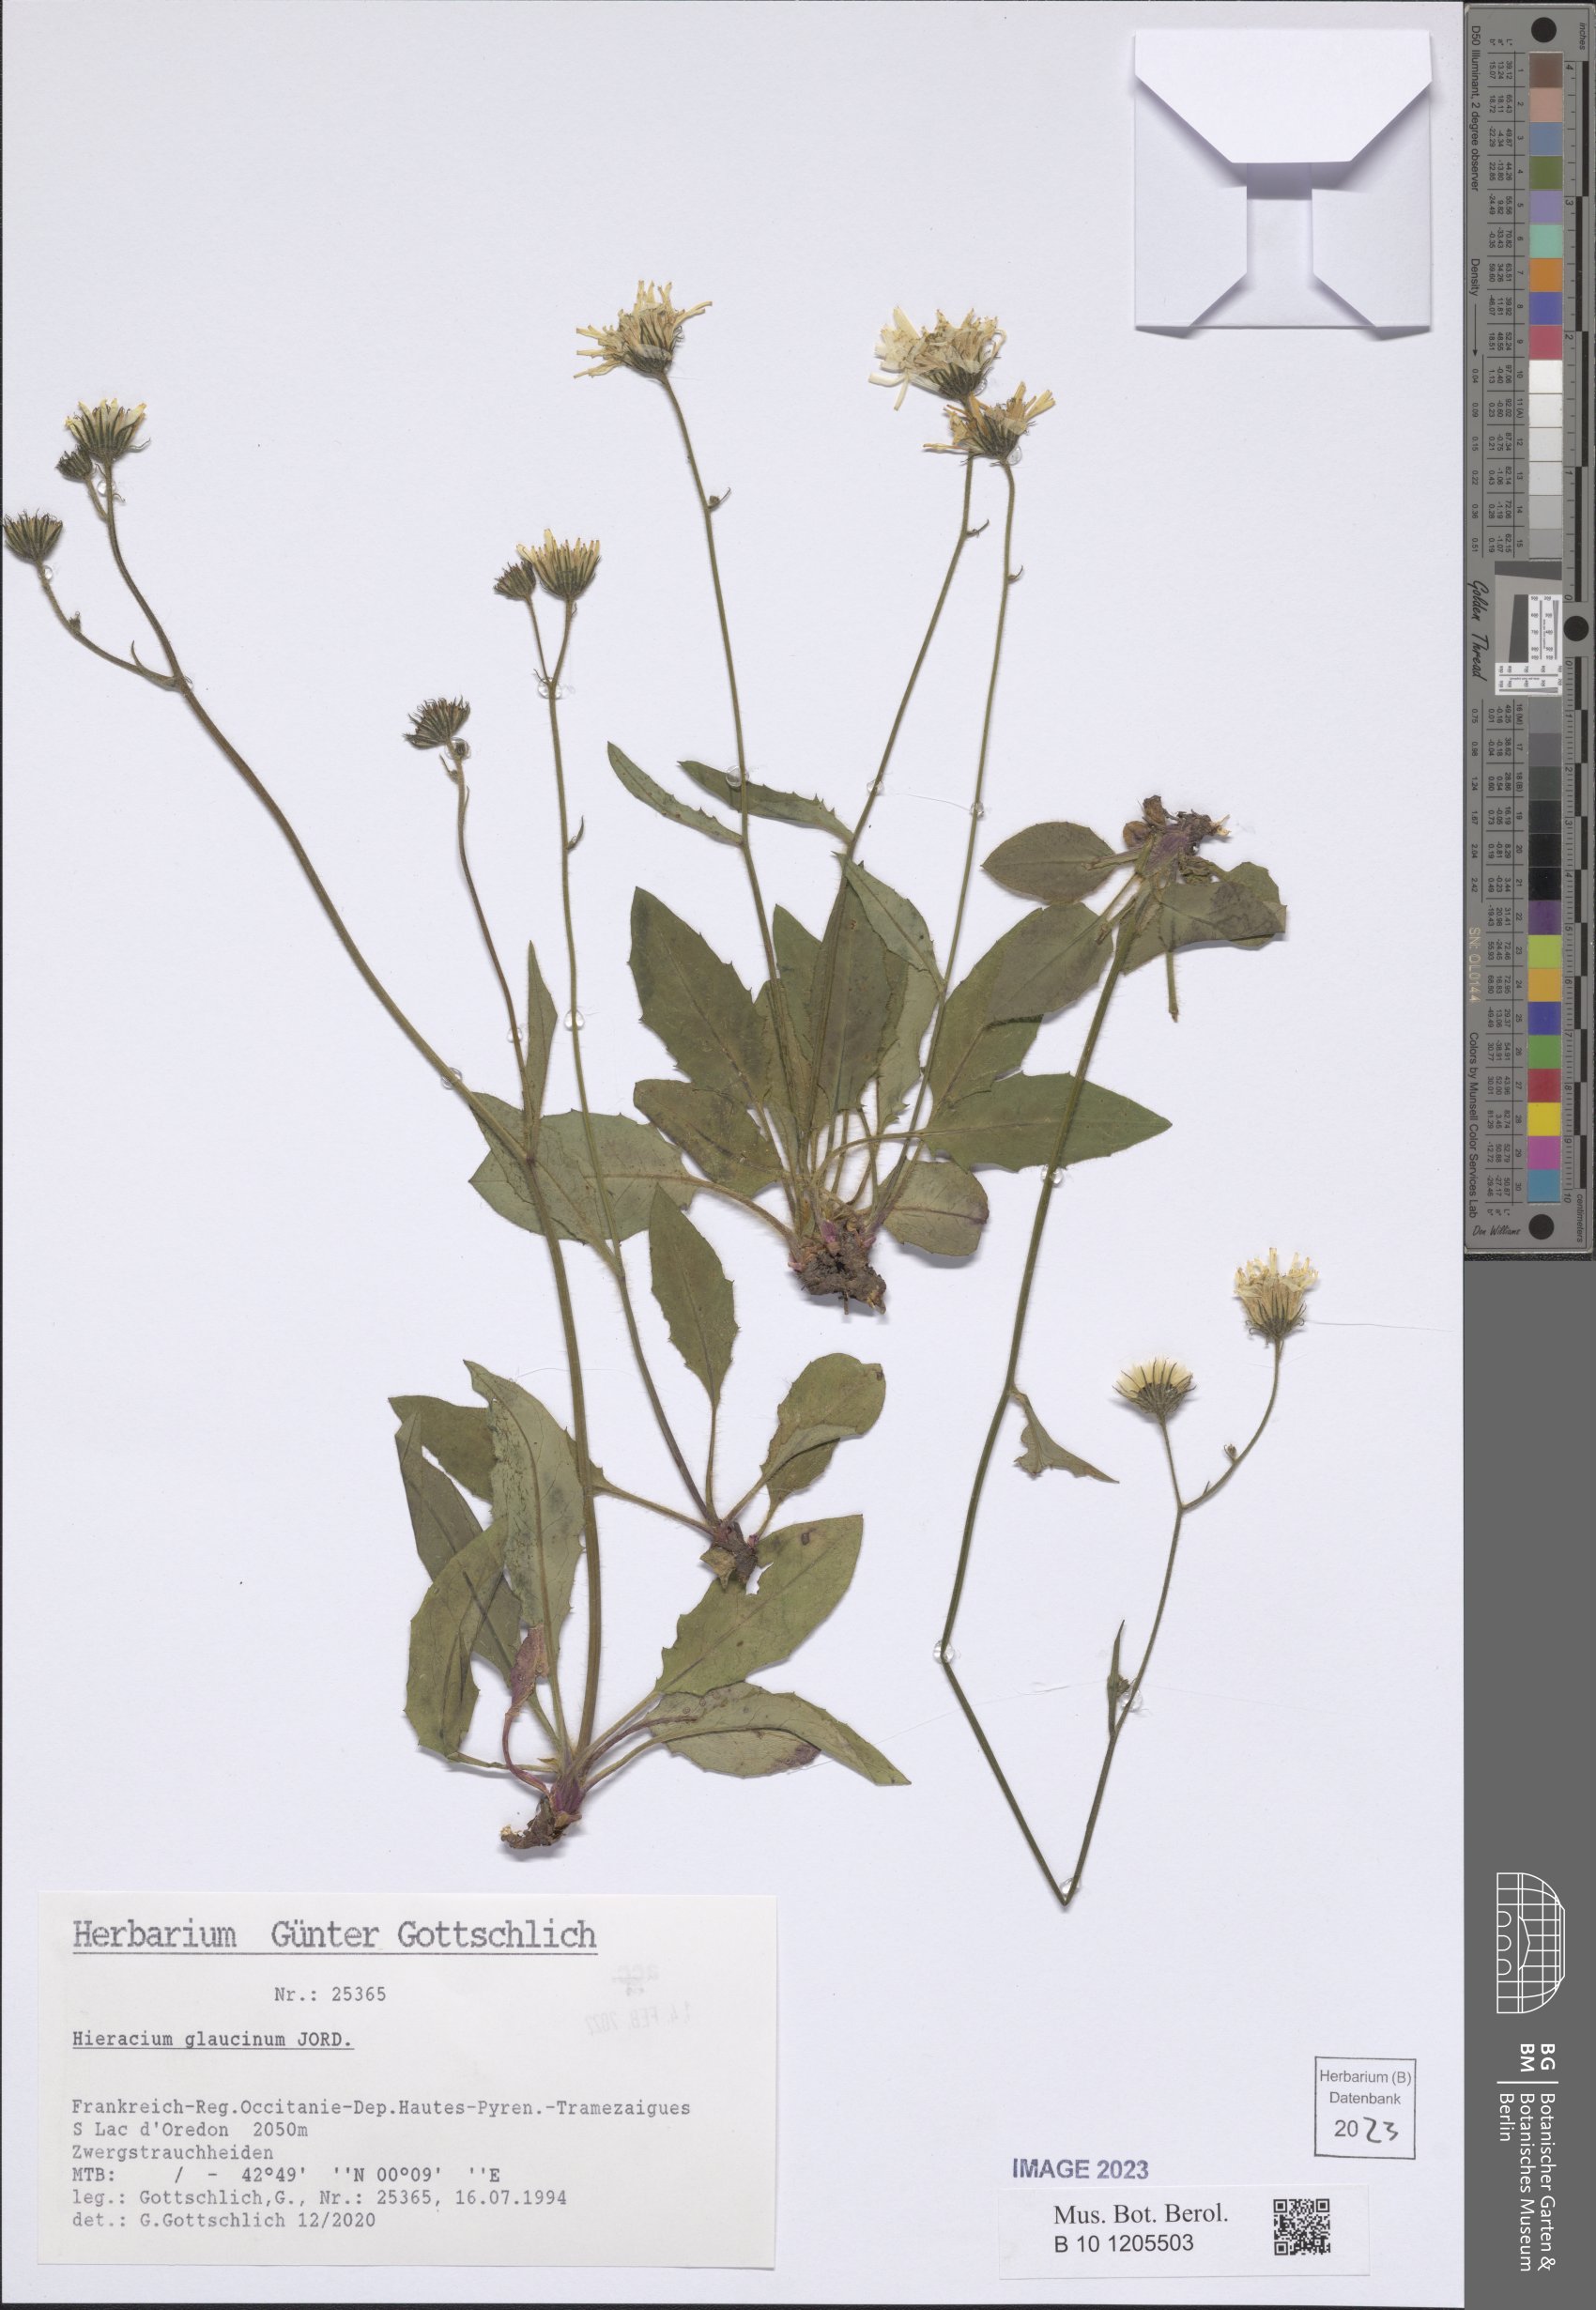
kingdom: Plantae
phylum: Tracheophyta
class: Magnoliopsida
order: Asterales
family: Asteraceae
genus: Hieracium
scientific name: Hieracium glaucinum
